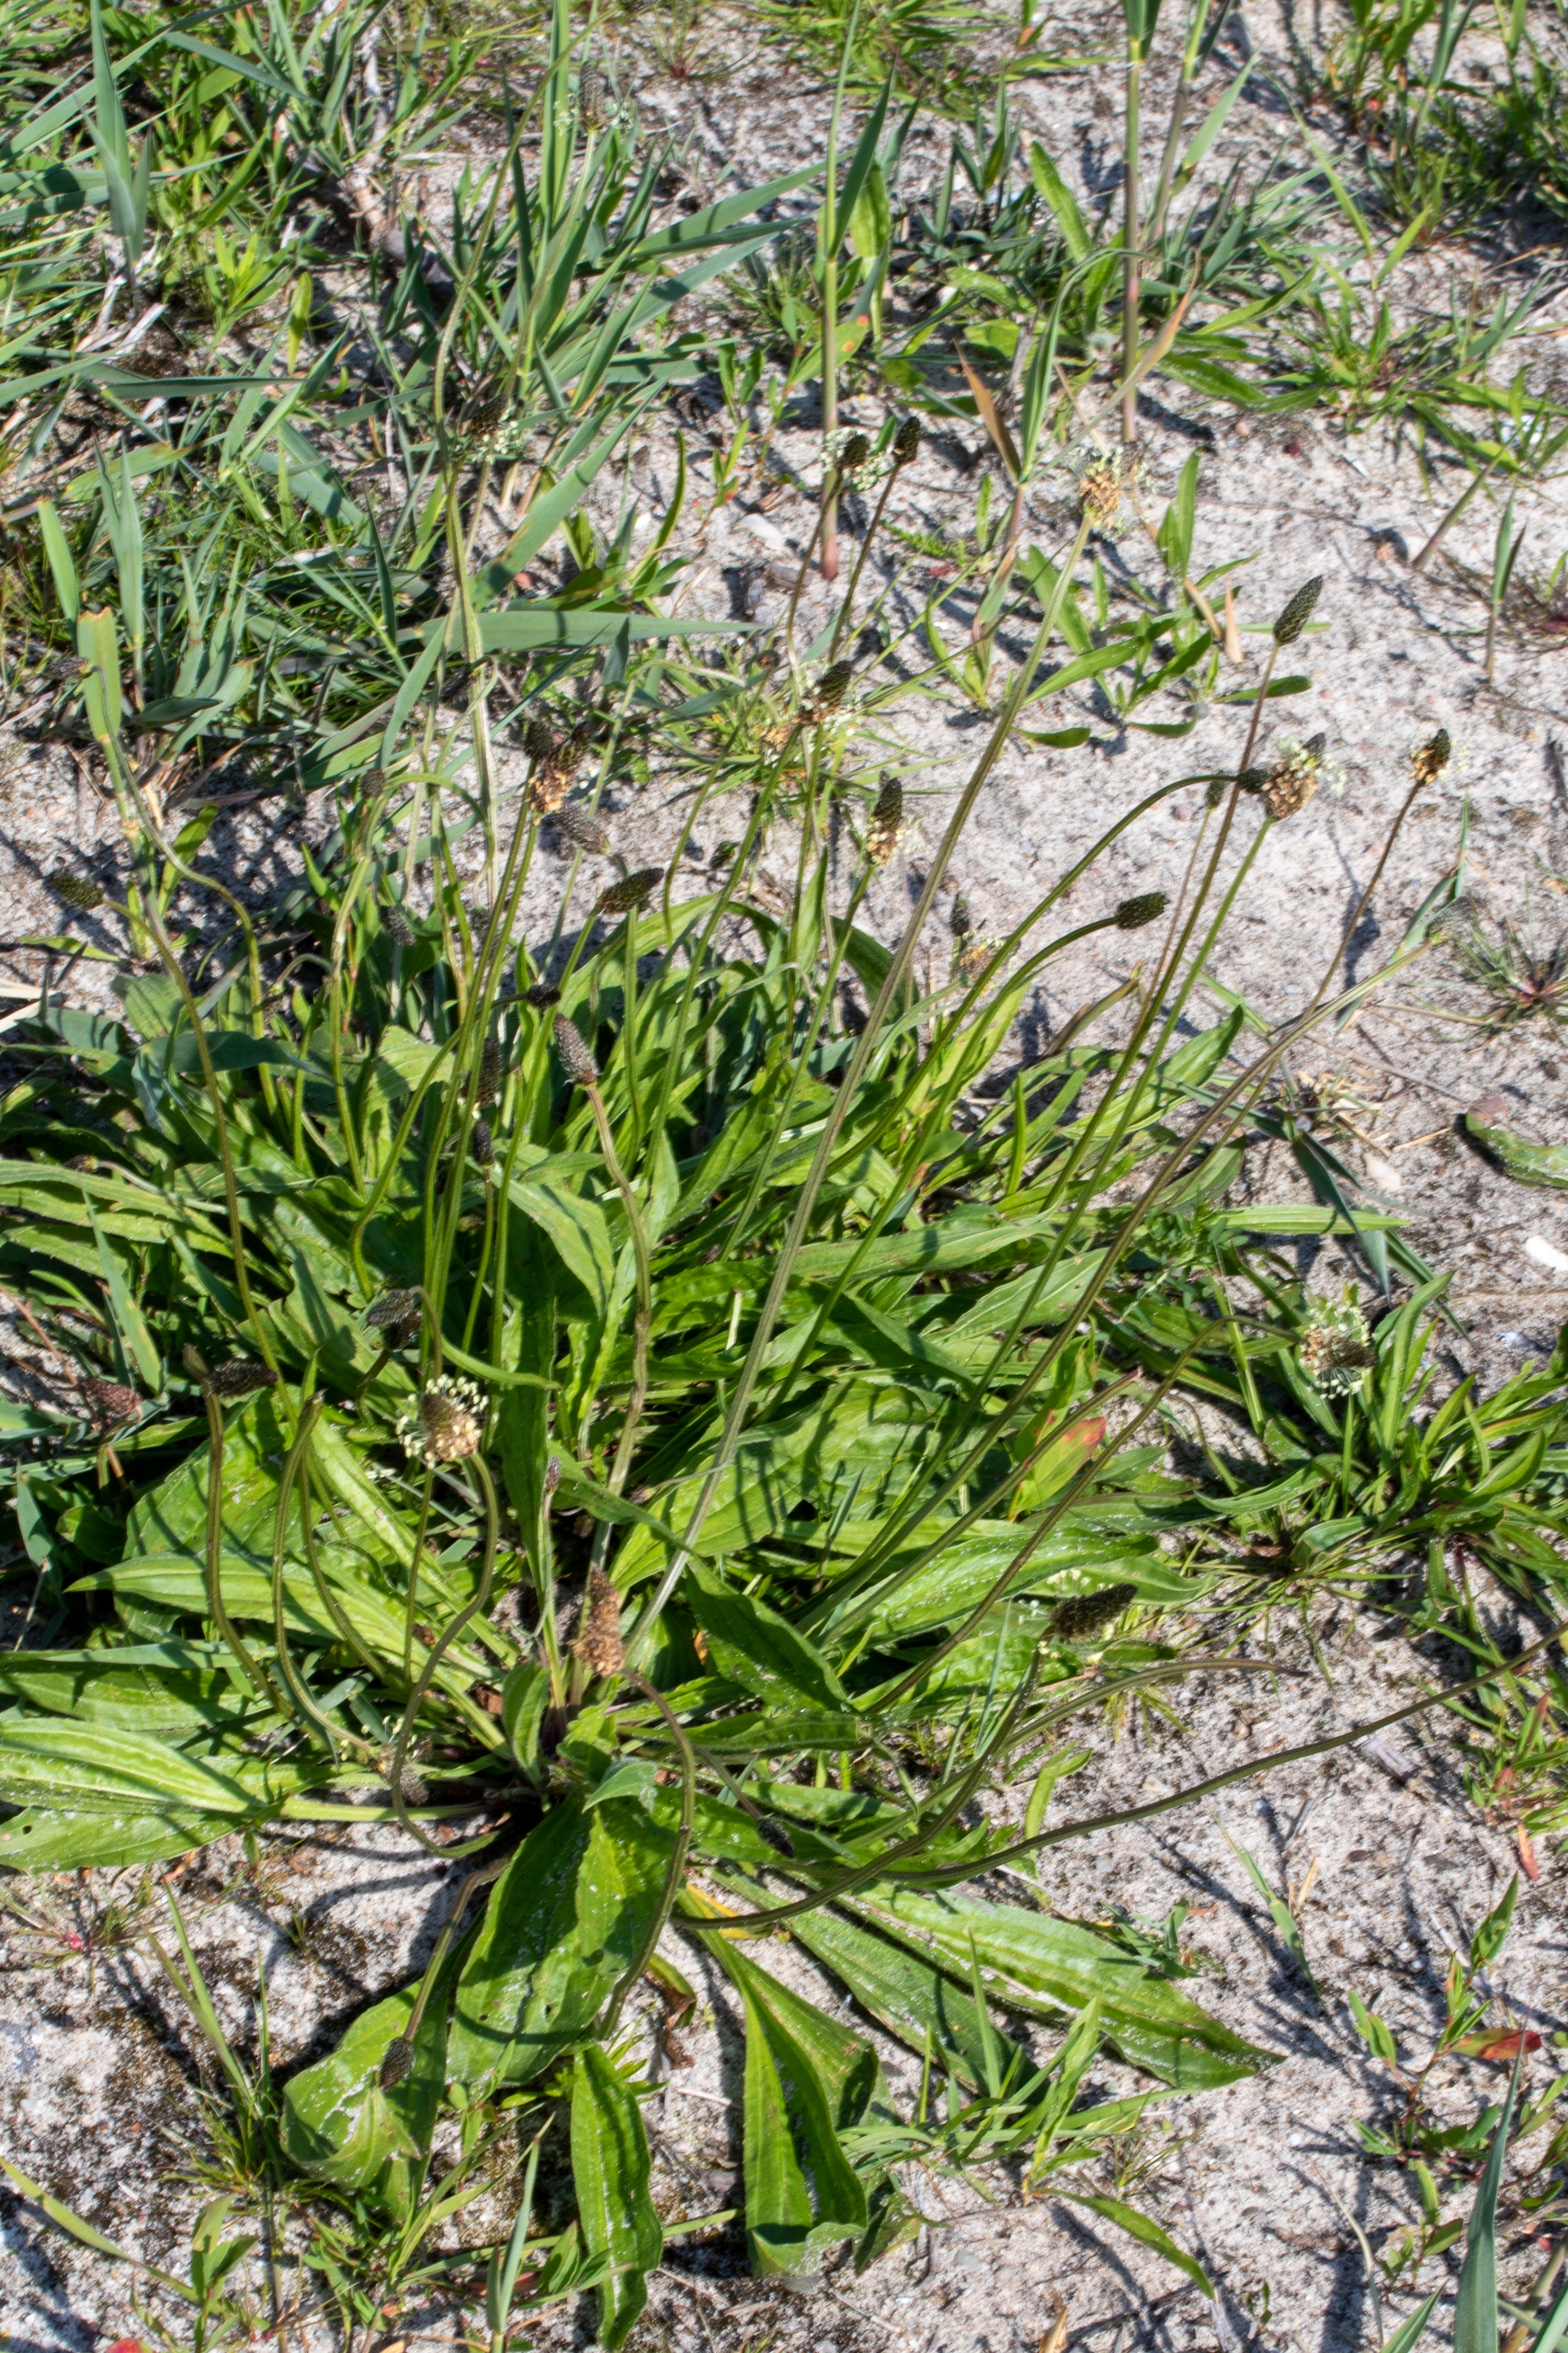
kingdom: Plantae
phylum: Tracheophyta
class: Magnoliopsida
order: Lamiales
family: Plantaginaceae
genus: Plantago
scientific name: Plantago lanceolata
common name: Lancet-vejbred
